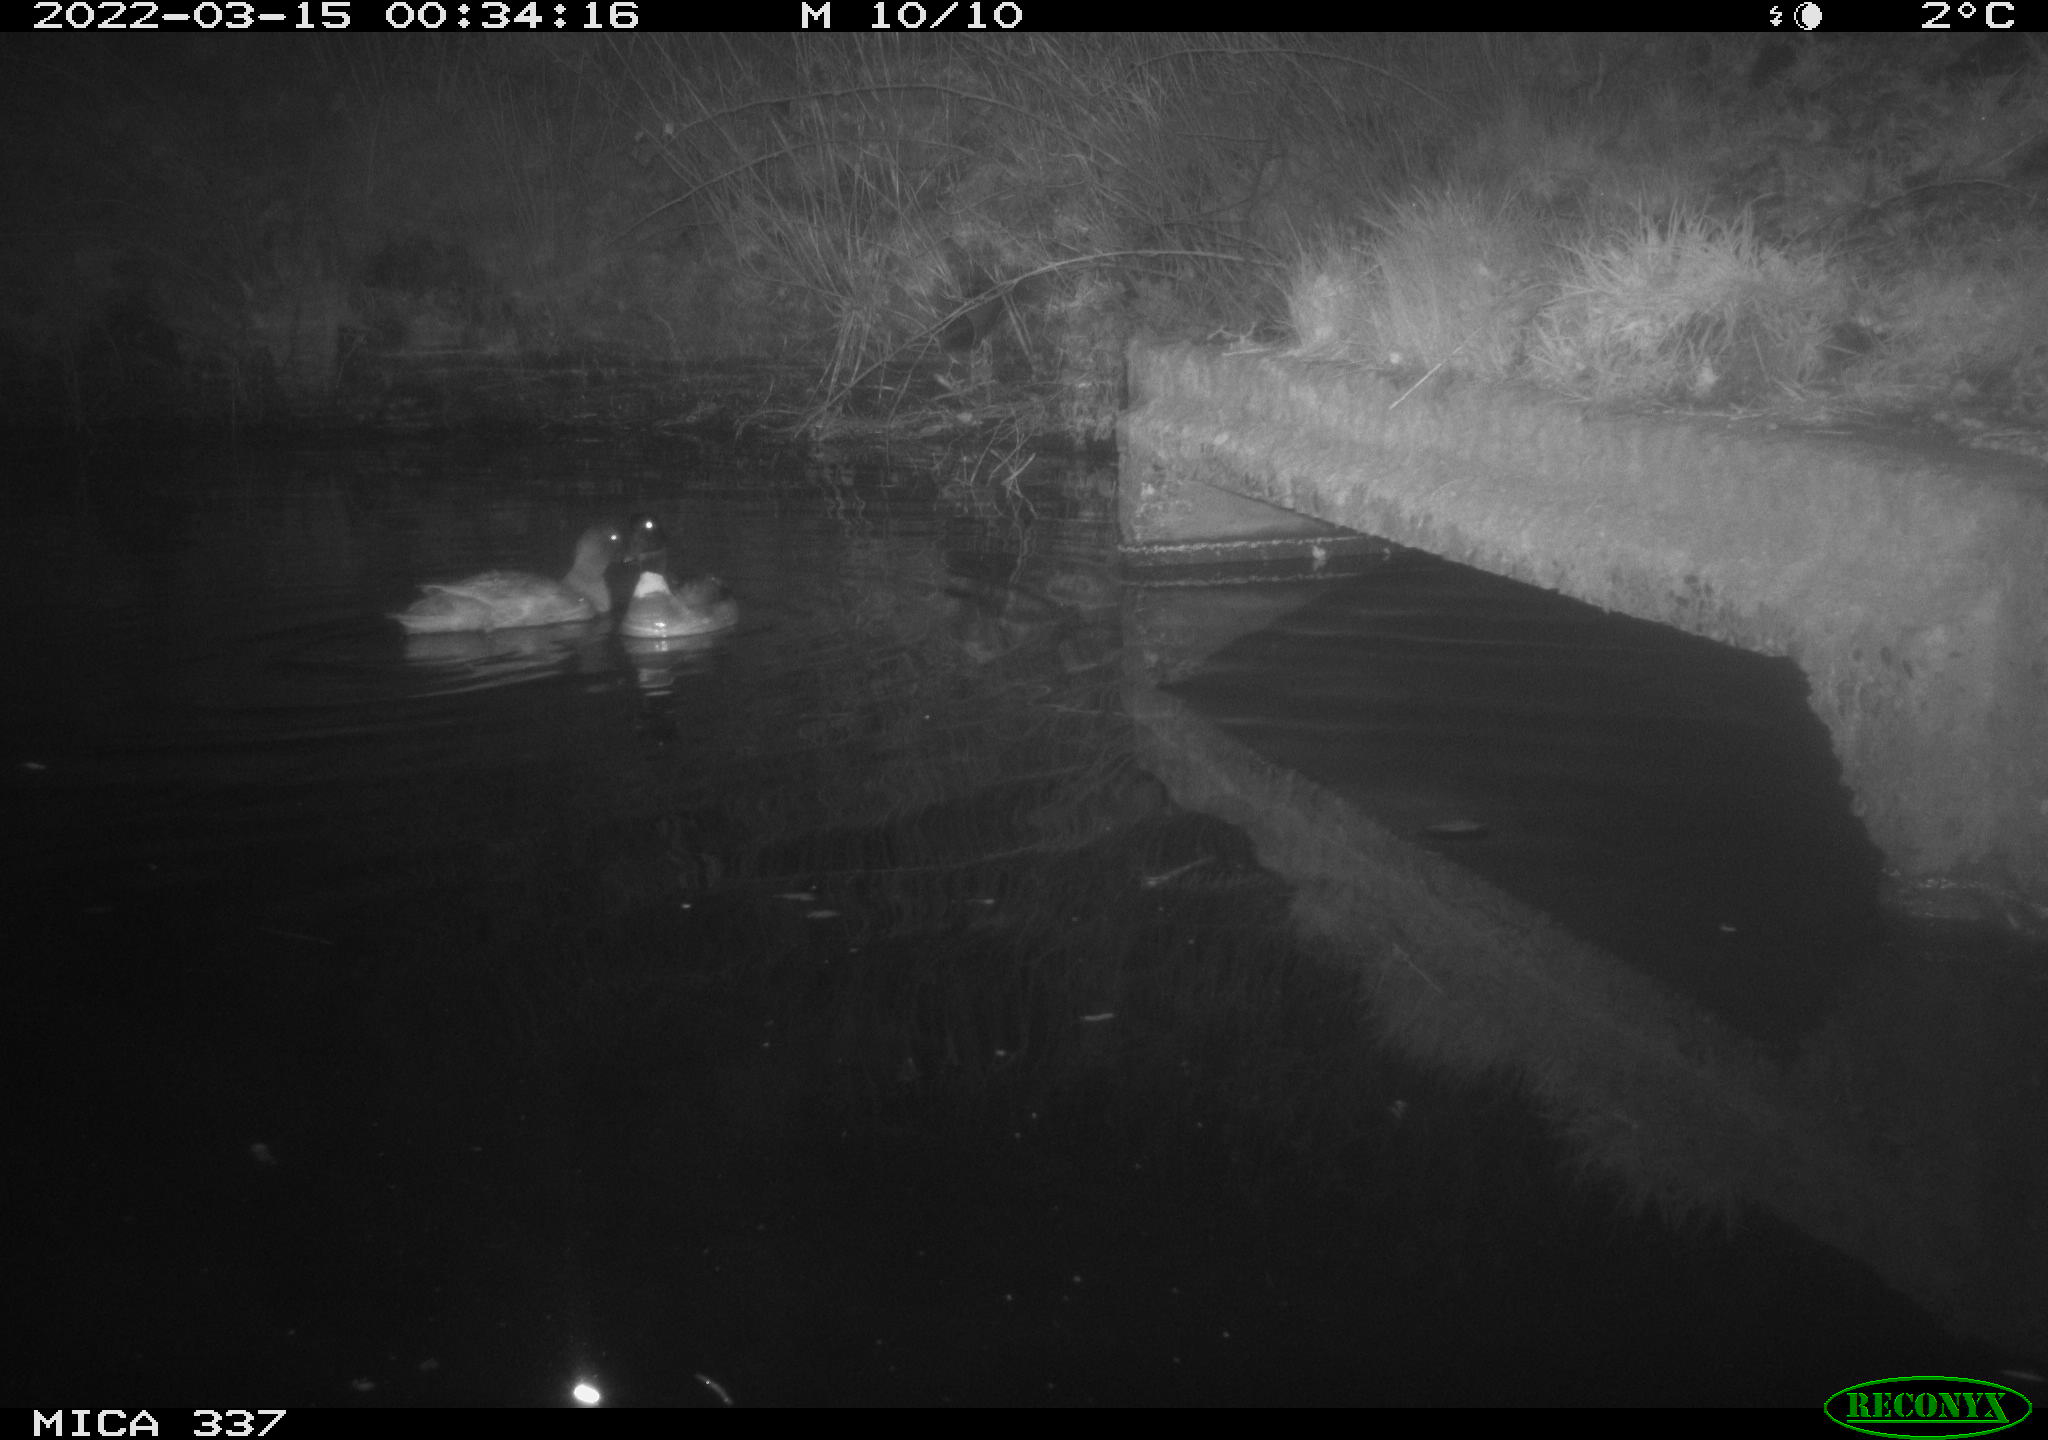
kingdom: Animalia
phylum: Chordata
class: Aves
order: Anseriformes
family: Anatidae
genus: Anas
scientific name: Anas platyrhynchos
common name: Mallard
